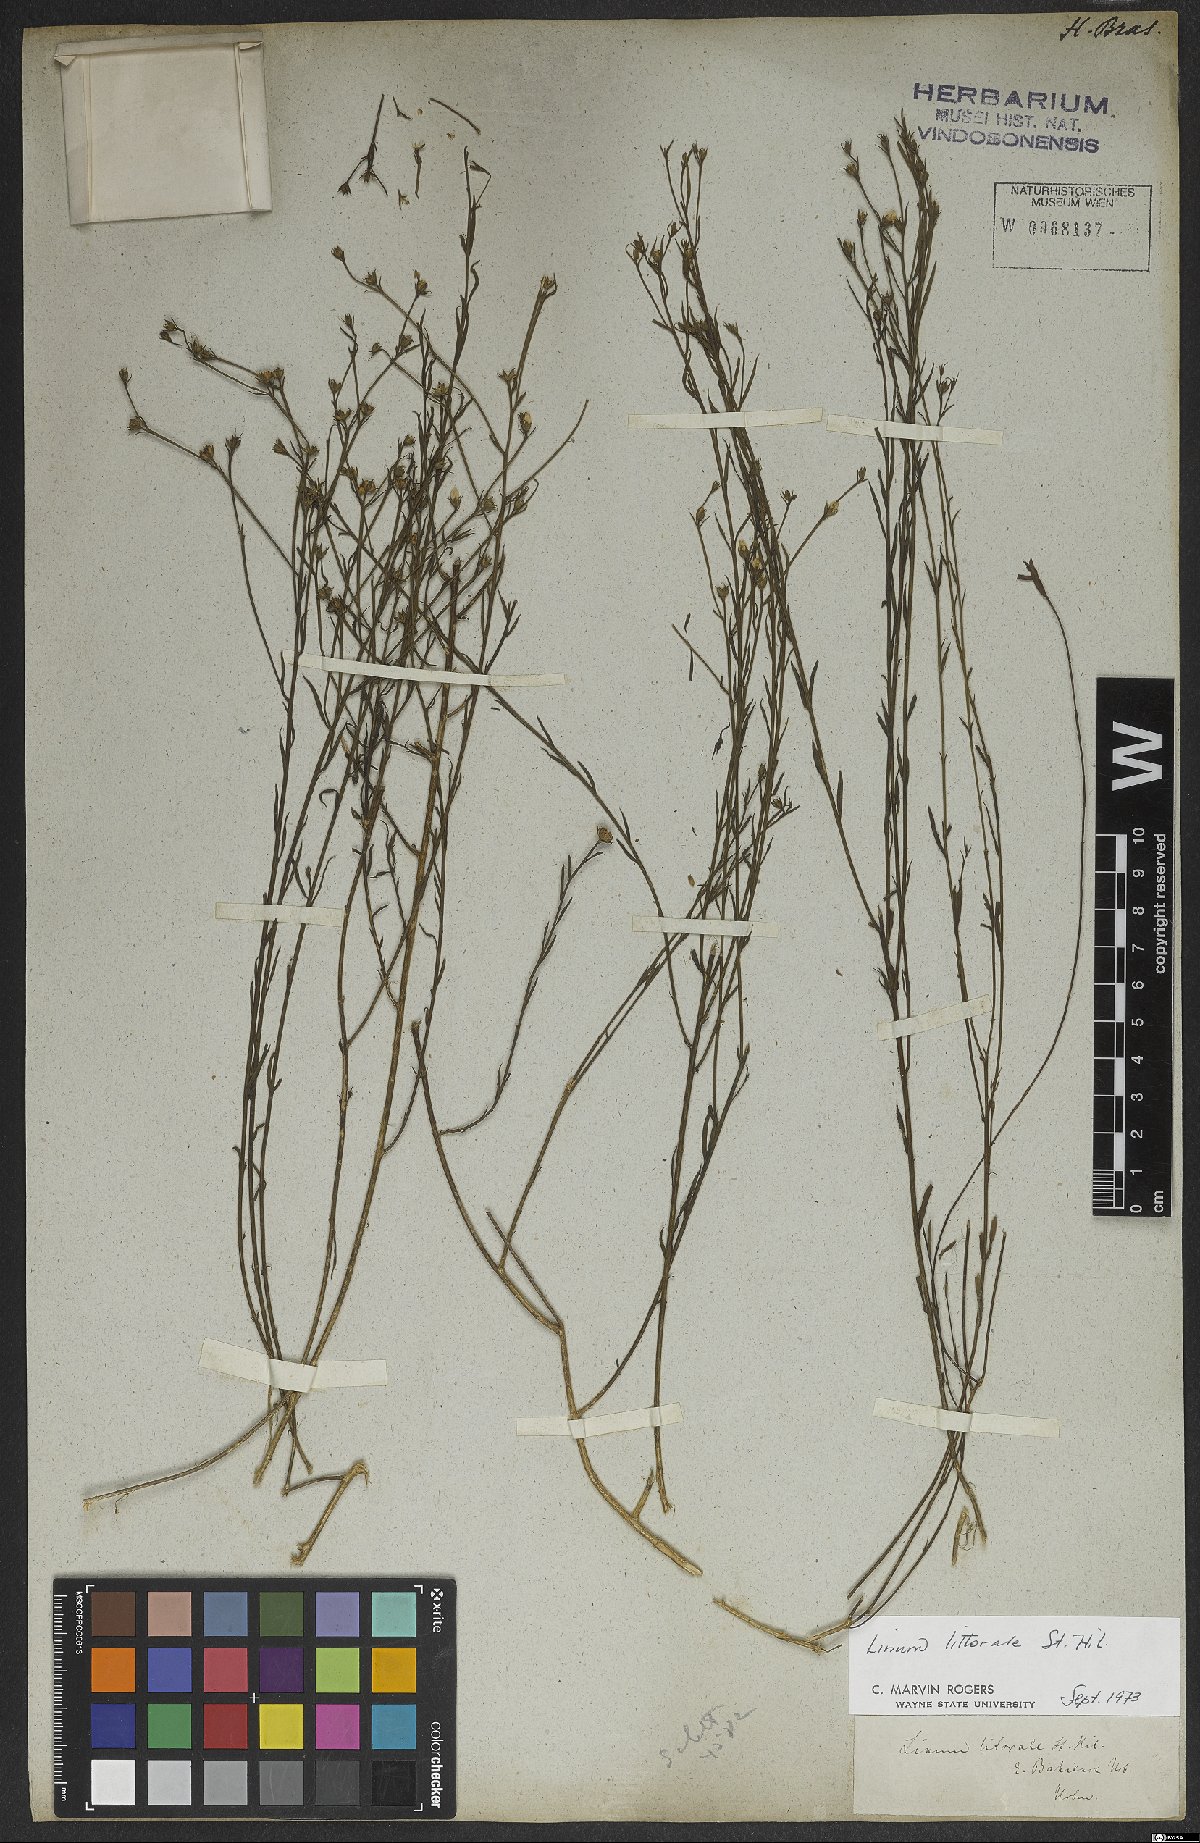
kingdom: Plantae
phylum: Tracheophyta
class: Magnoliopsida
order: Malpighiales
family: Linaceae
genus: Linum
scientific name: Linum littorale
